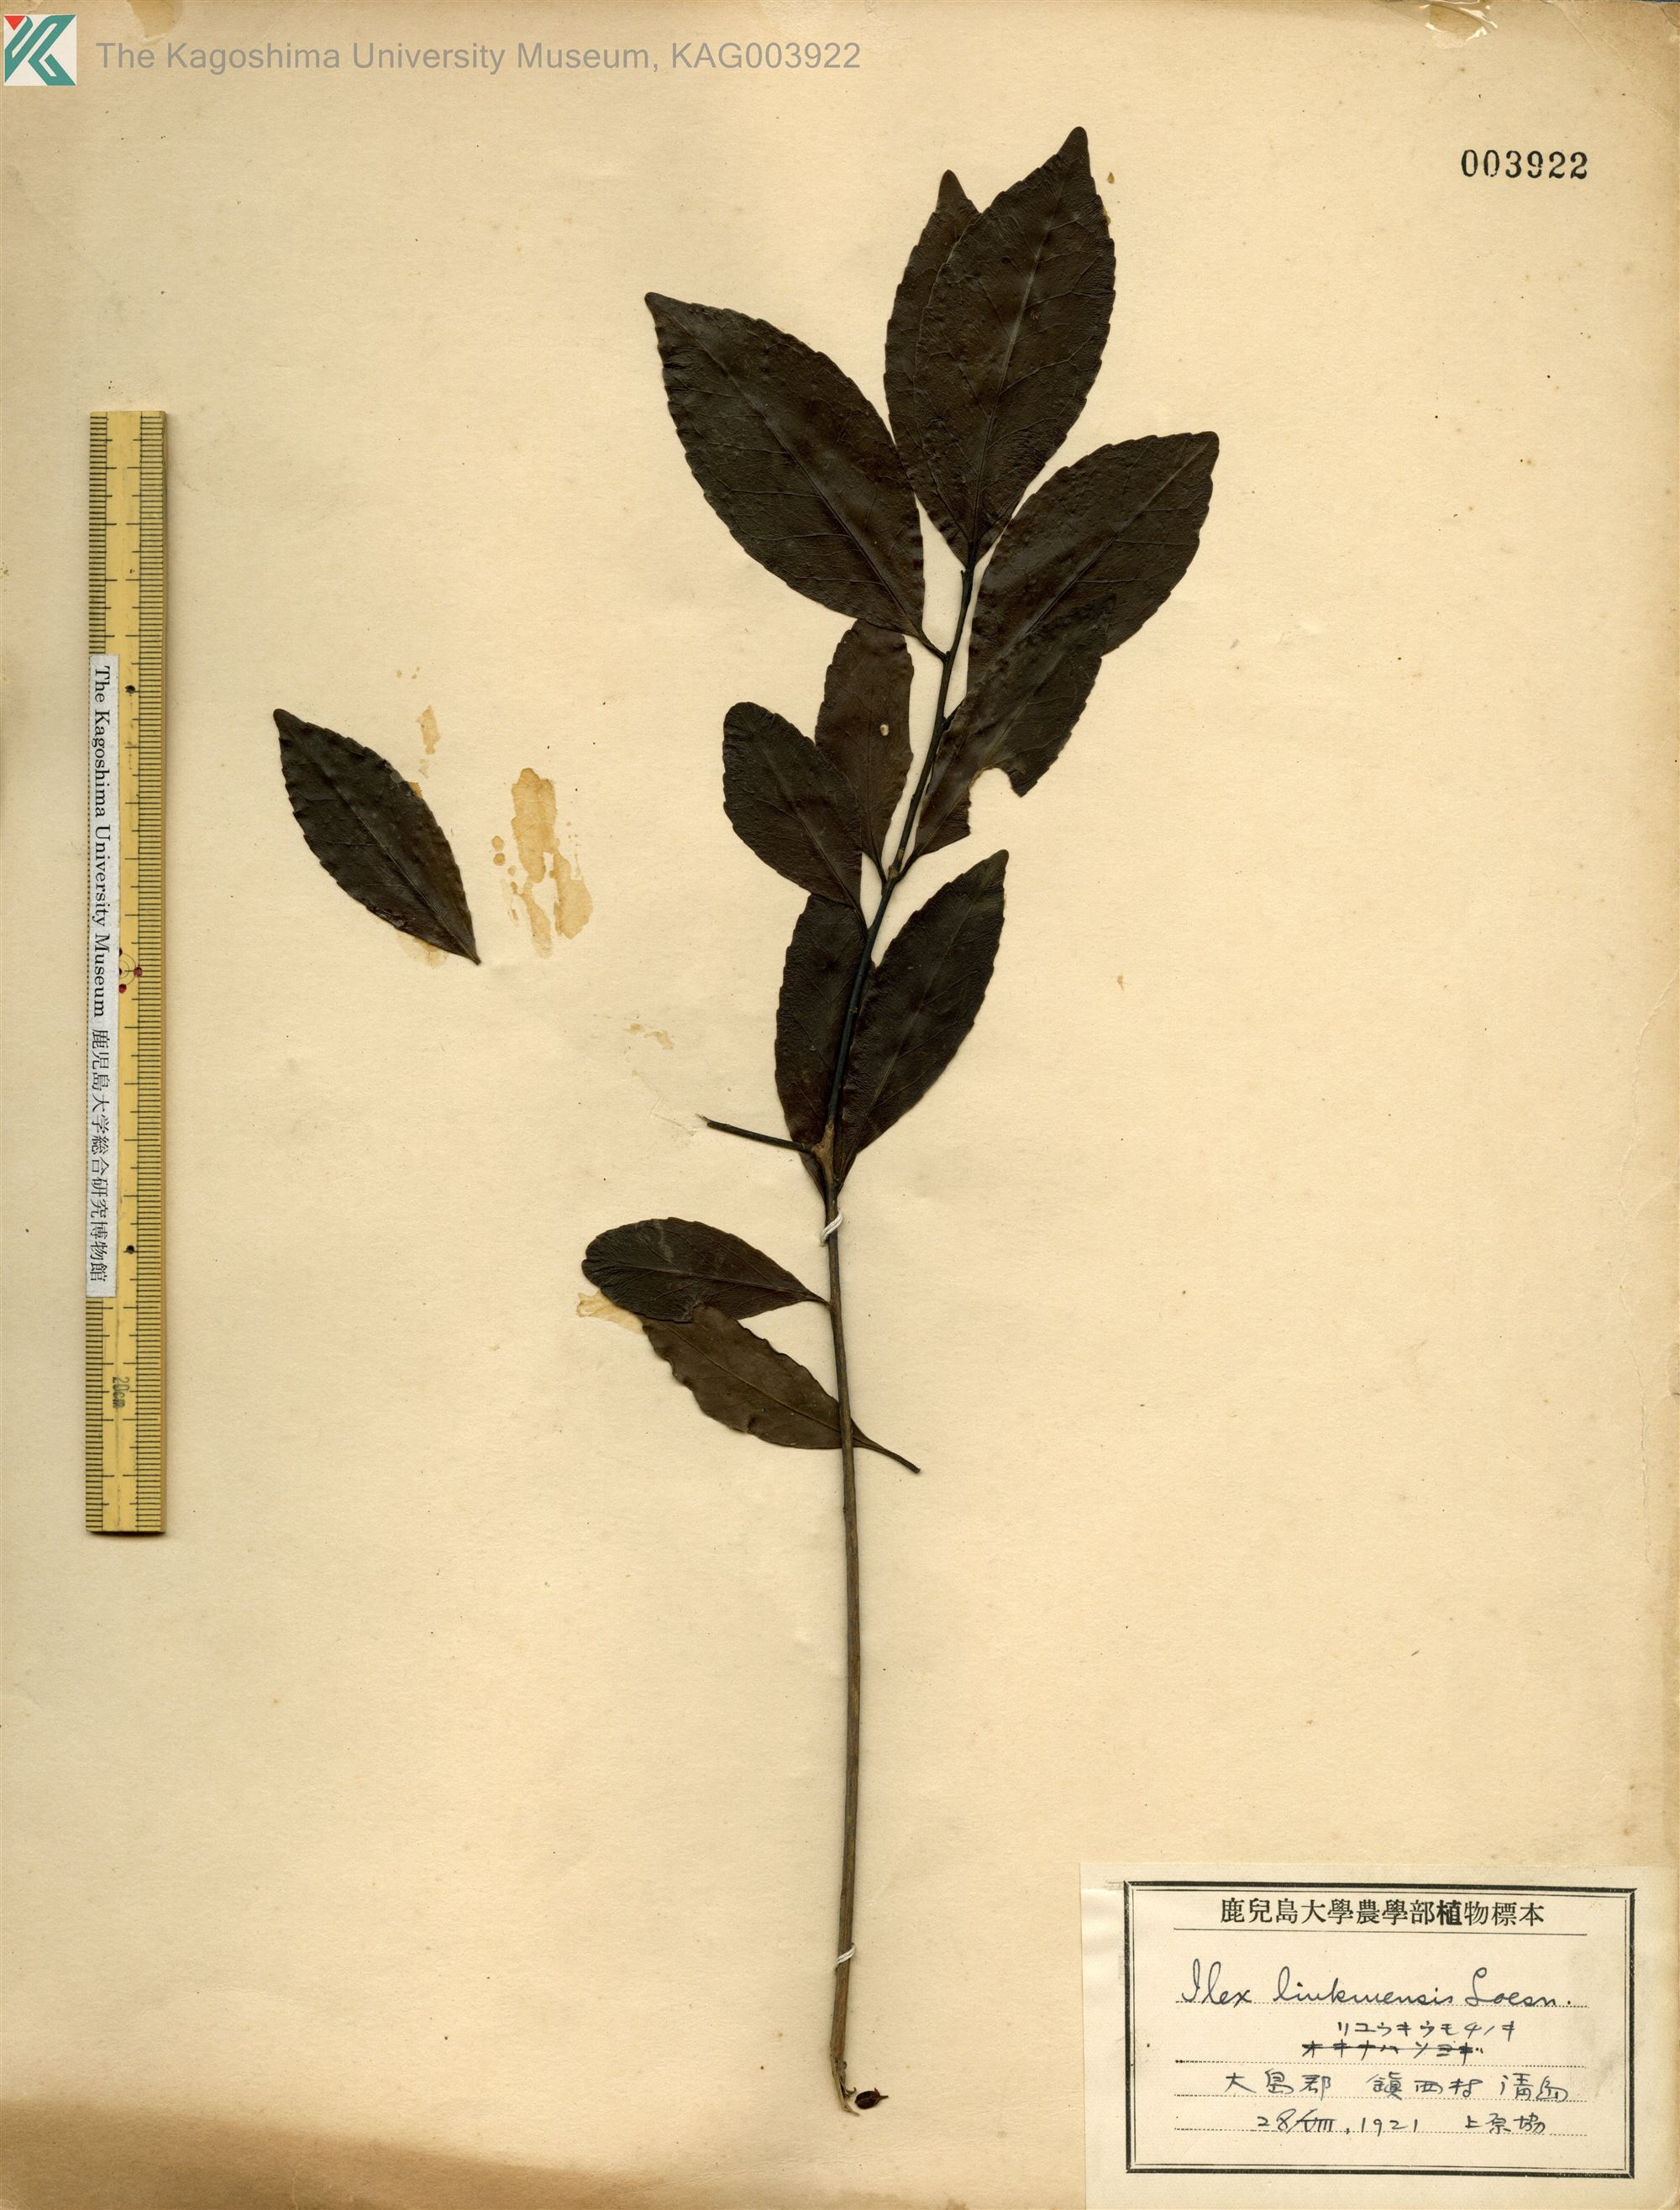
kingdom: Plantae
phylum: Tracheophyta
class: Magnoliopsida
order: Aquifoliales
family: Aquifoliaceae
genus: Ilex
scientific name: Ilex liukiuensis
